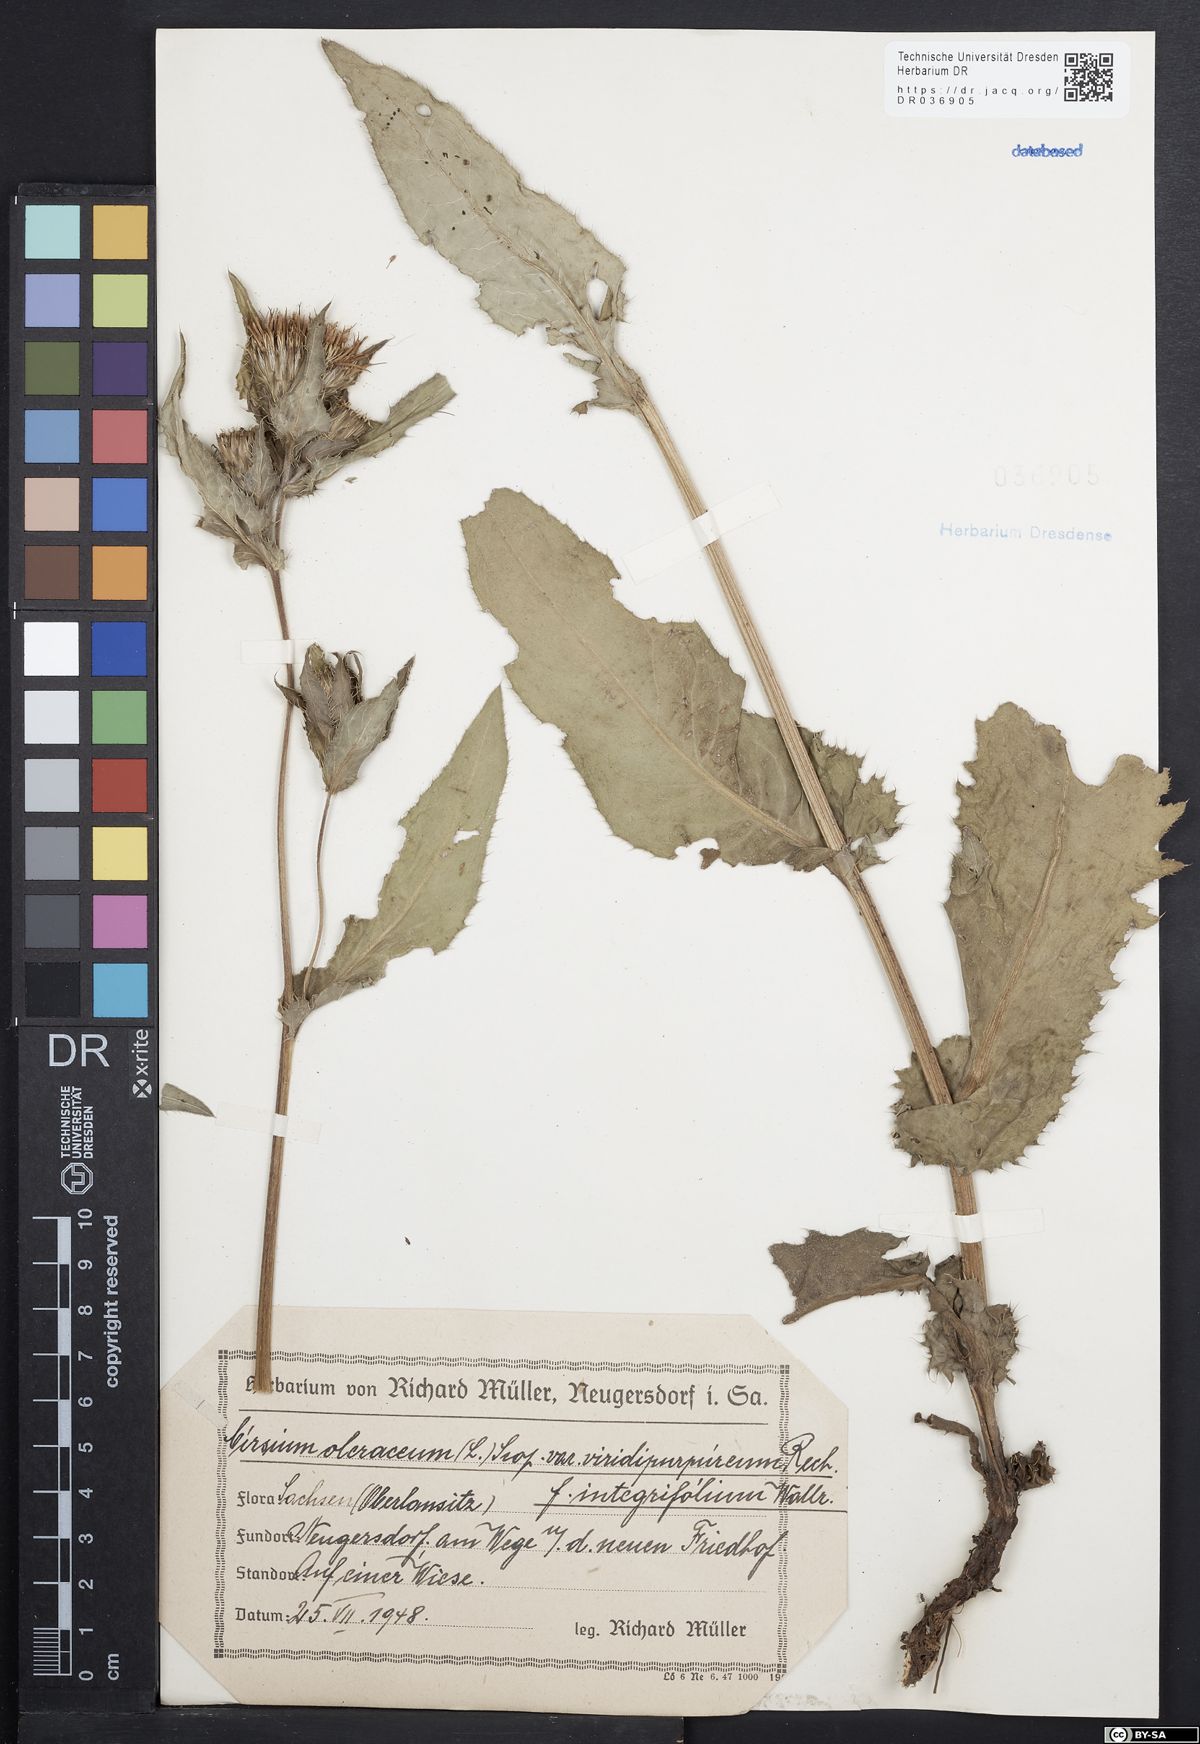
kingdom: Plantae
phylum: Tracheophyta
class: Magnoliopsida
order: Asterales
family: Asteraceae
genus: Cirsium
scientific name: Cirsium oleraceum
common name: Cabbage thistle
